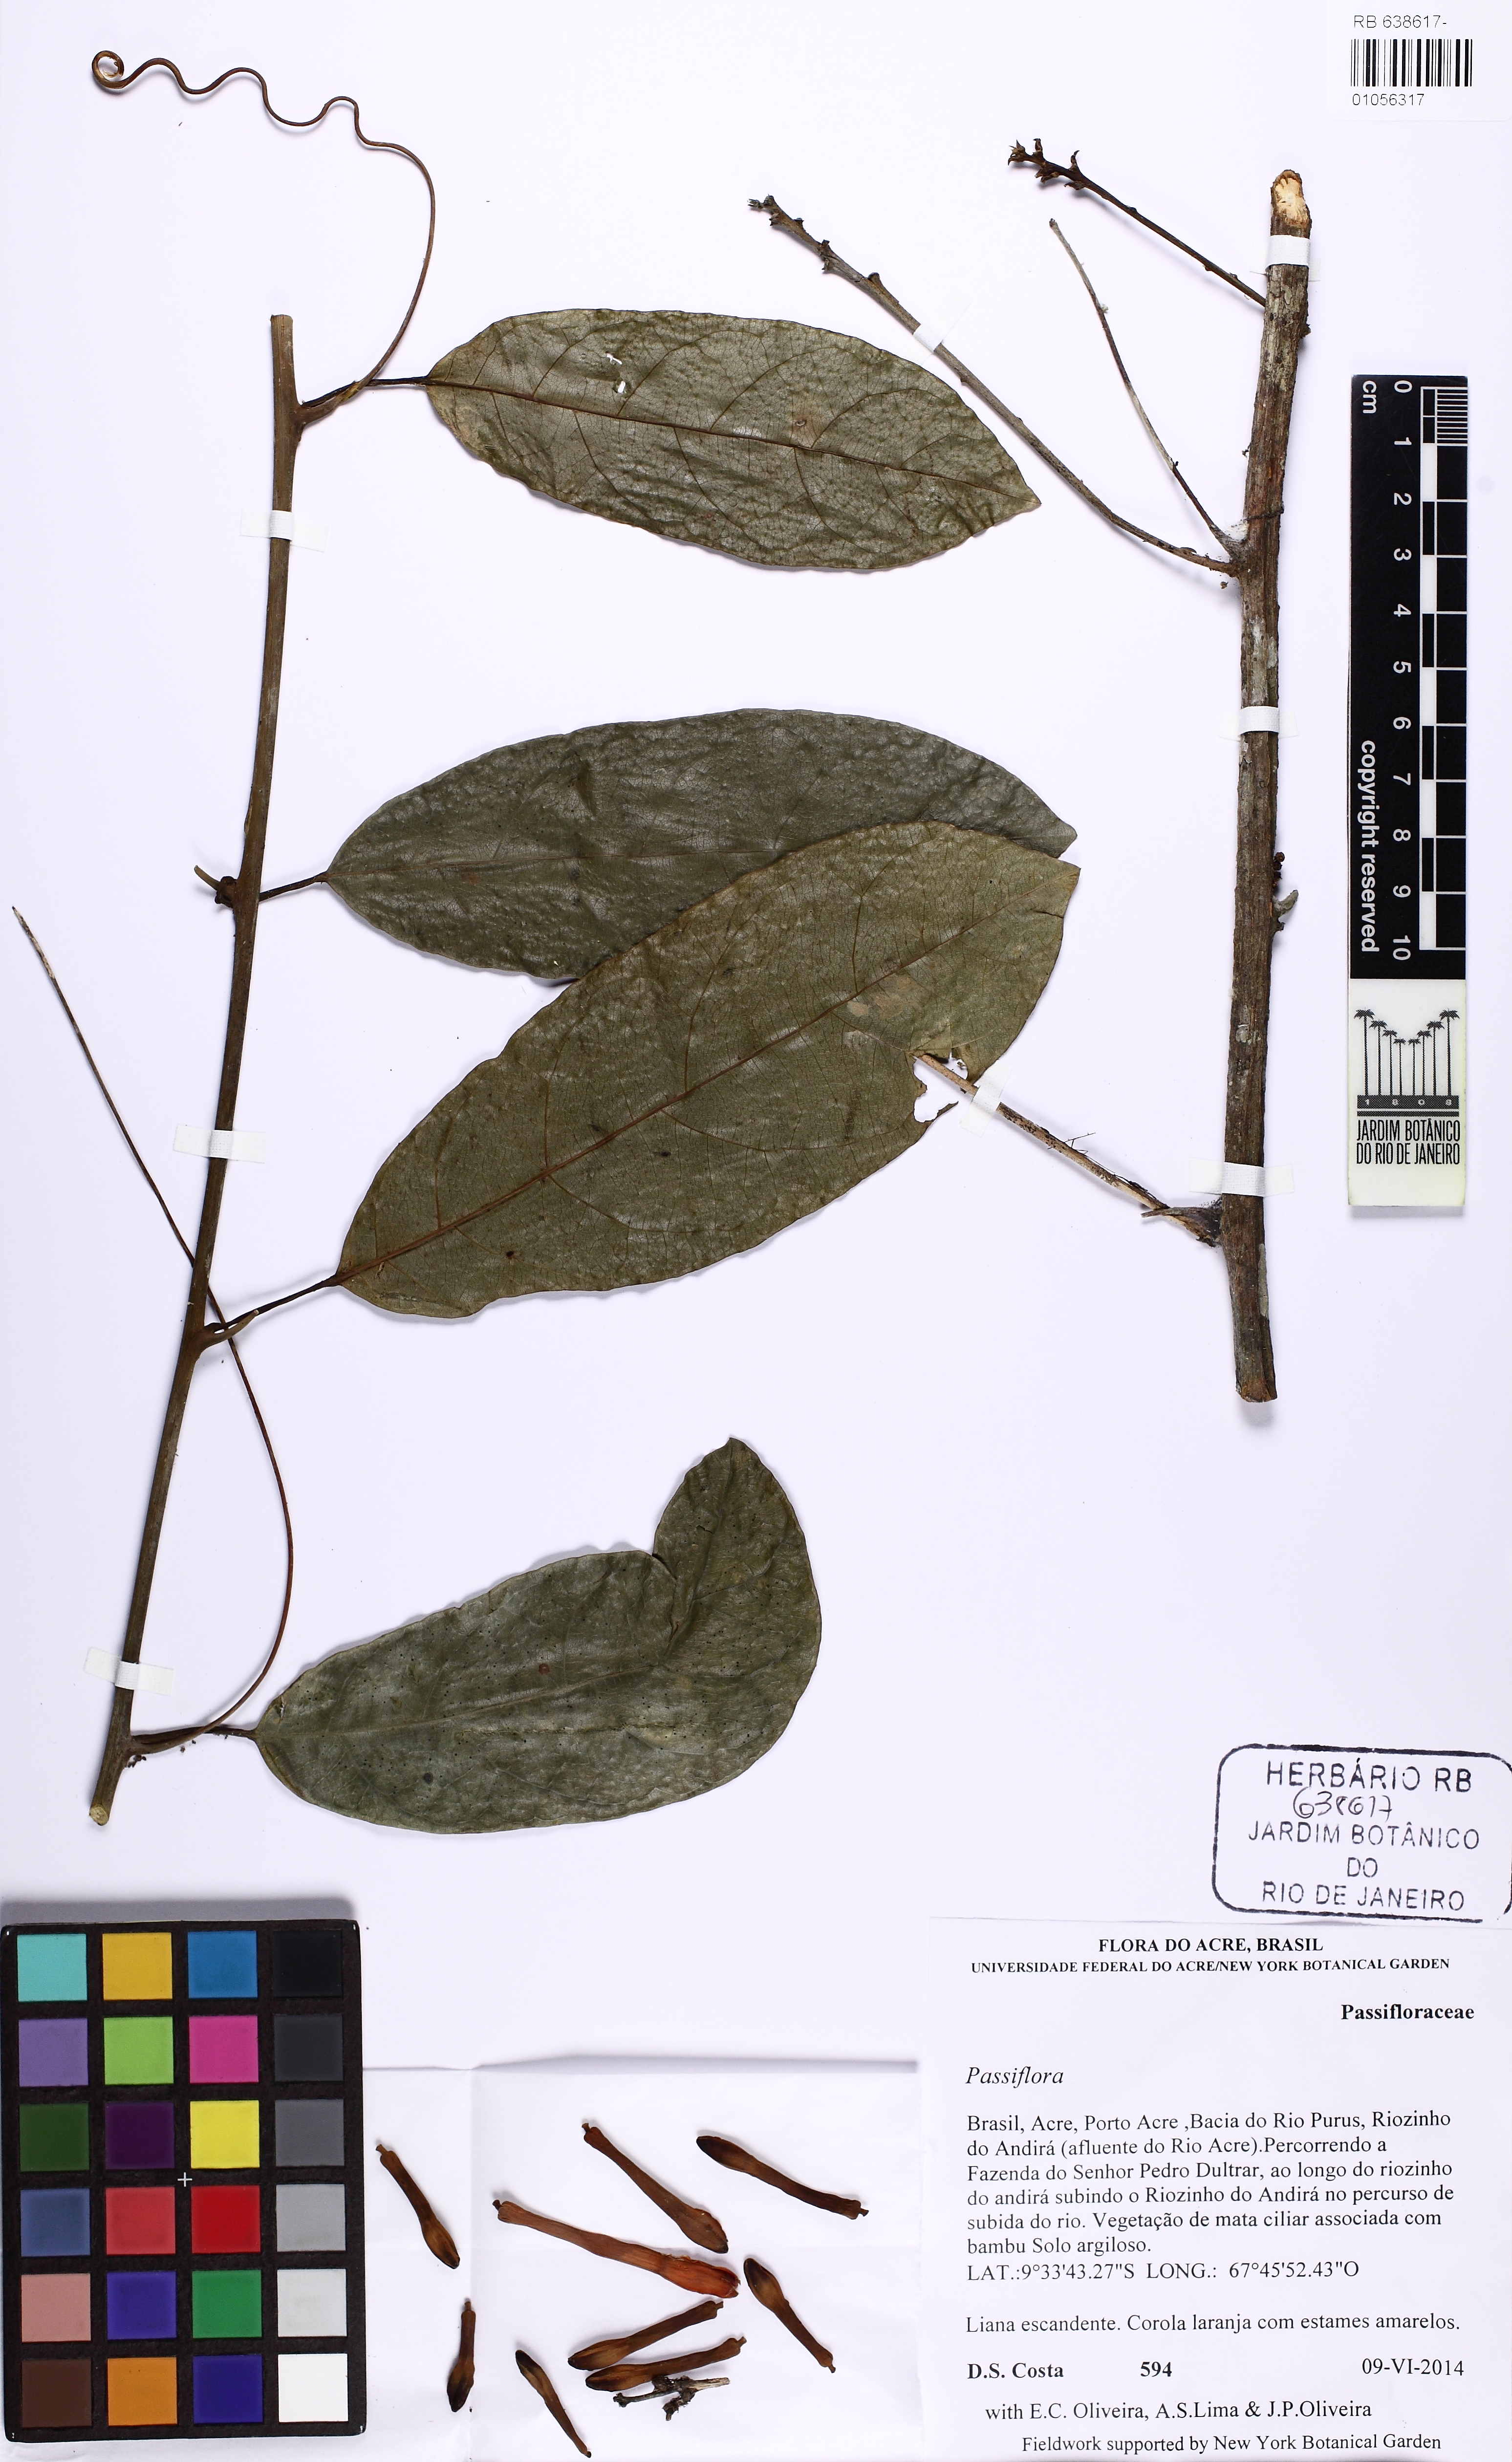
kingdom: Plantae
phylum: Tracheophyta
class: Magnoliopsida
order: Malpighiales
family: Passifloraceae
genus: Passiflora
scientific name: Passiflora securiclata
